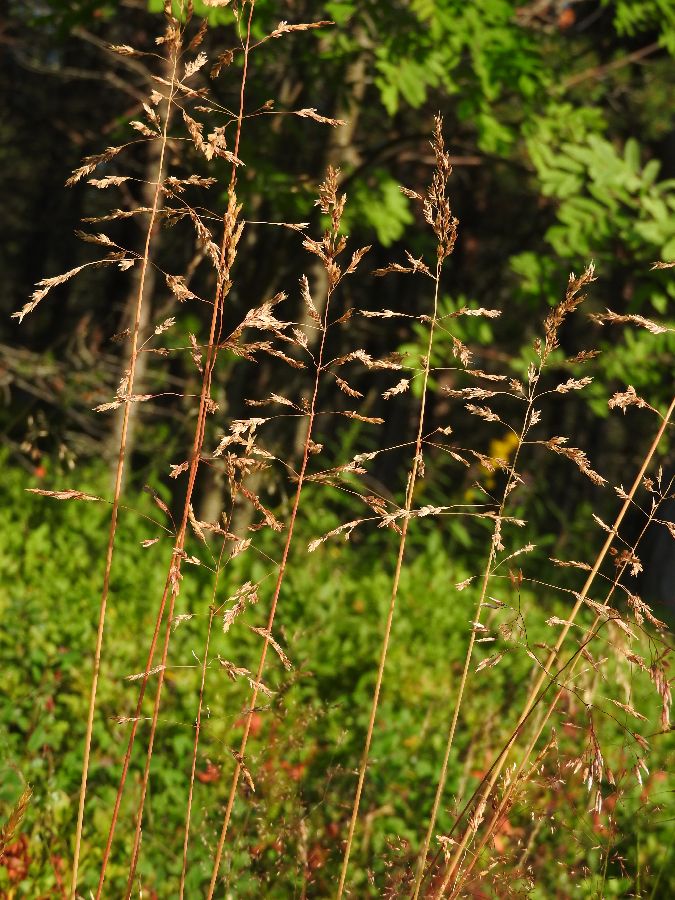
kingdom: Plantae
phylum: Tracheophyta
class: Liliopsida
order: Poales
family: Poaceae
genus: Poa
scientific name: Poa pratensis
